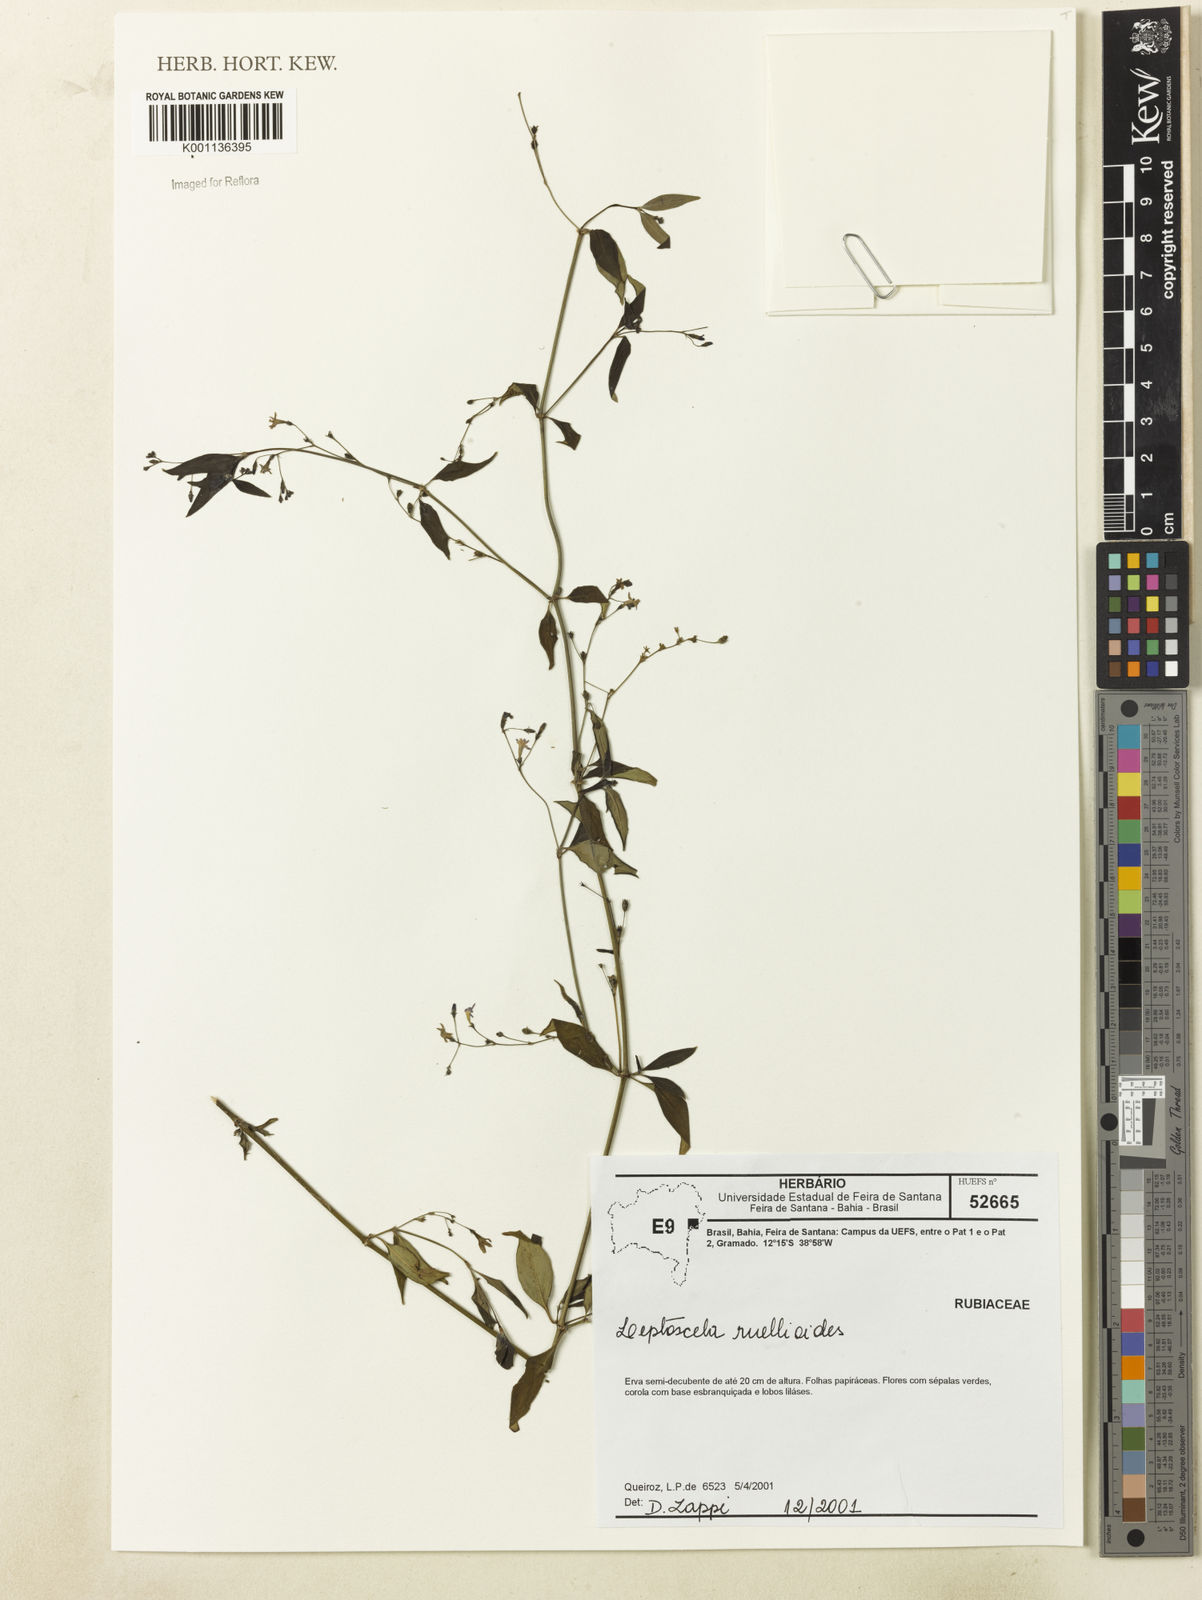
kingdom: Plantae
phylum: Tracheophyta
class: Magnoliopsida
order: Gentianales
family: Rubiaceae
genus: Leptoscela
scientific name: Leptoscela ruellioides
